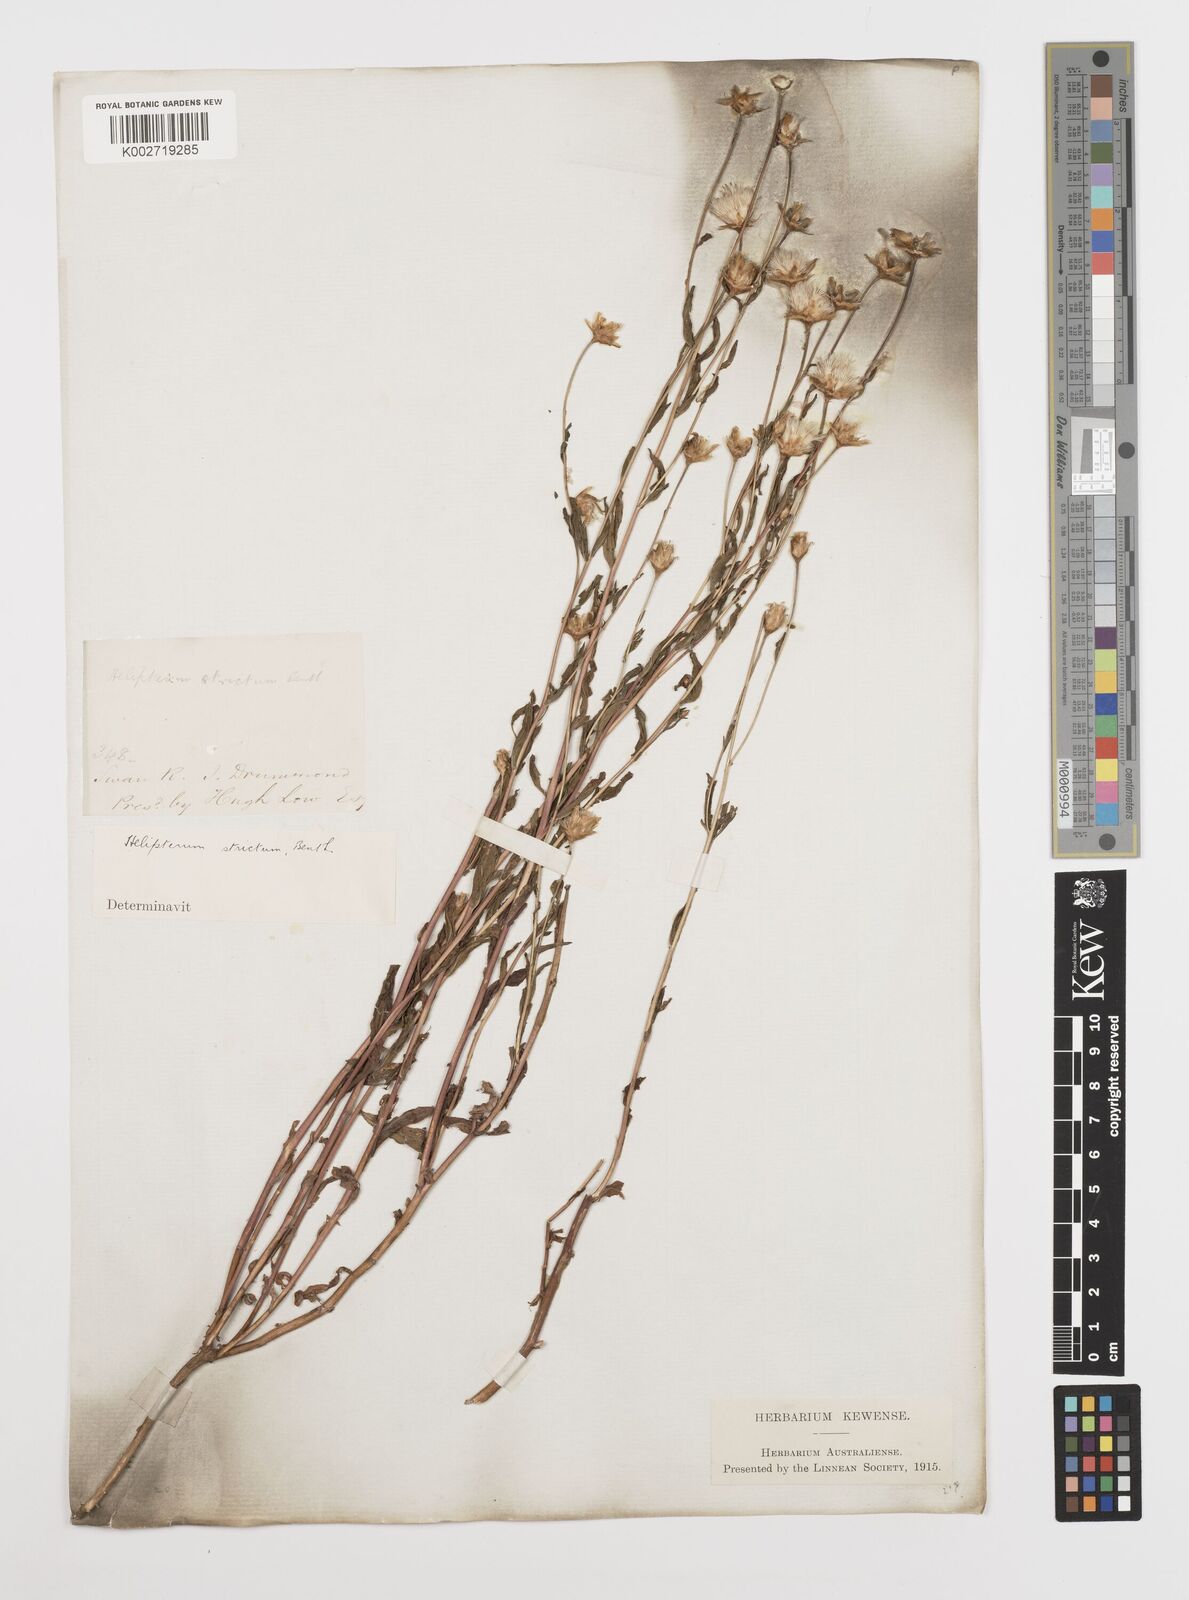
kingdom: Plantae
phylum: Tracheophyta
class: Magnoliopsida
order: Asterales
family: Asteraceae
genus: Rhodanthe
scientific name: Rhodanthe stricta
